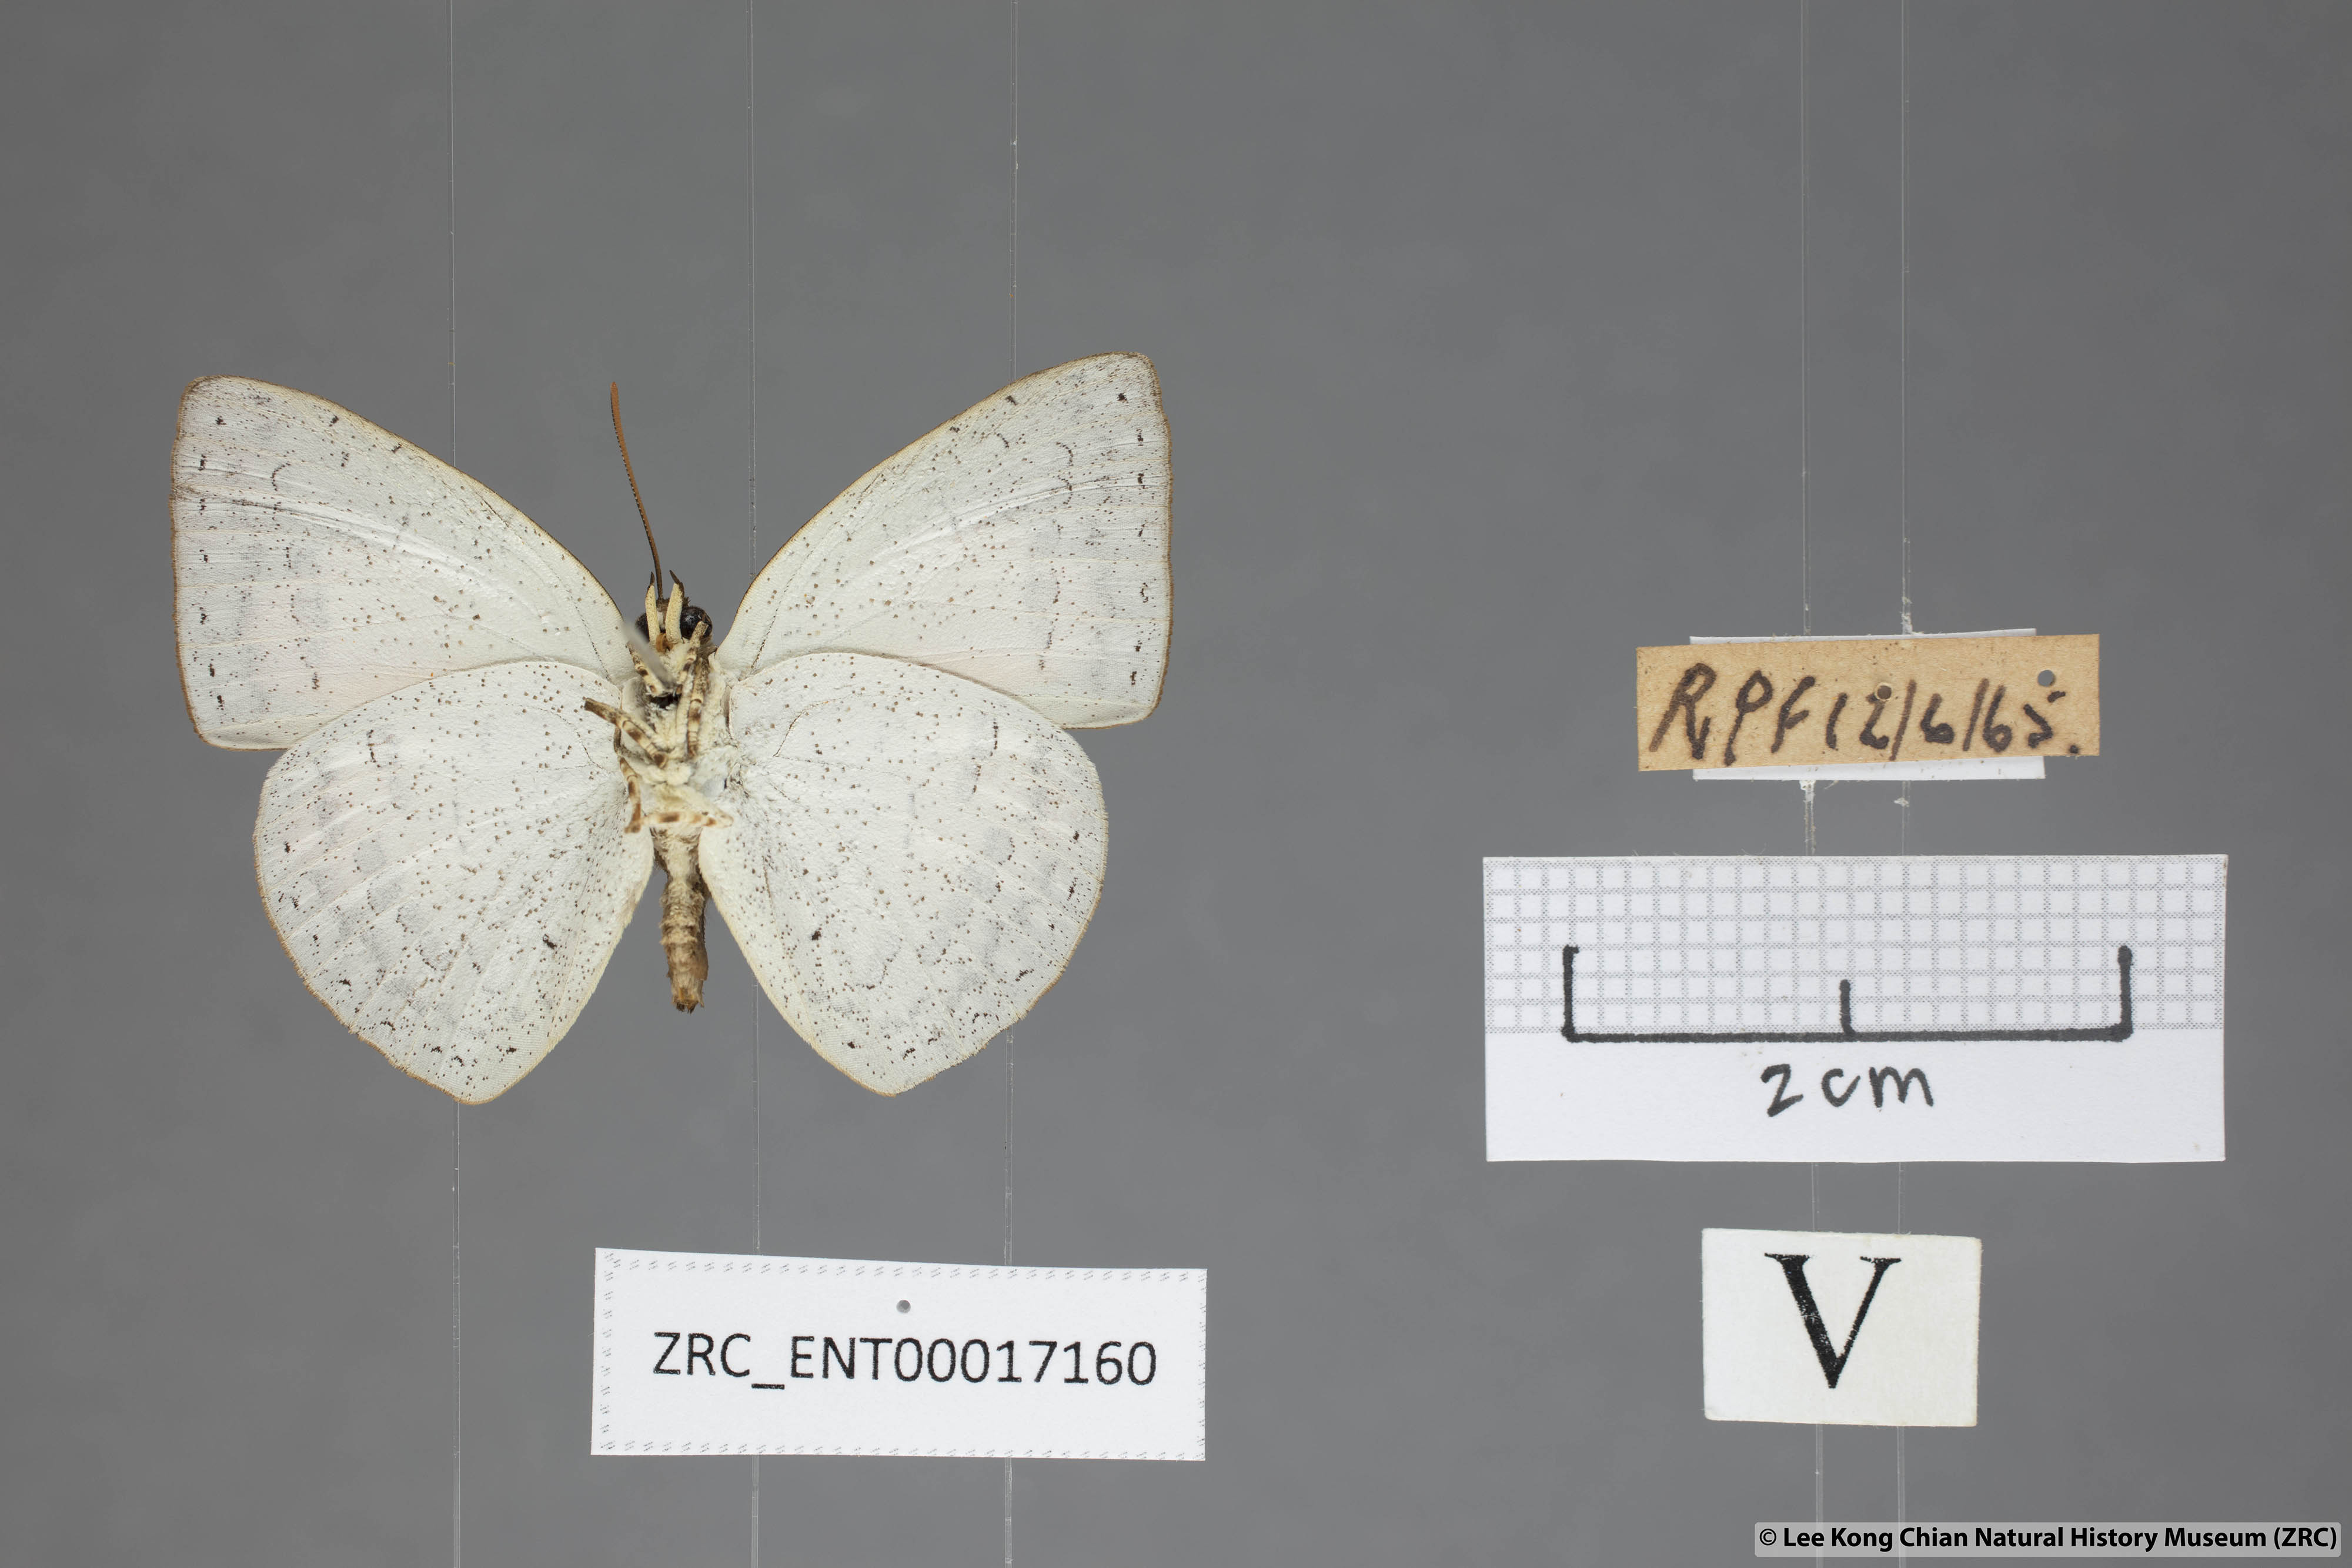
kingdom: Animalia
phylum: Arthropoda
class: Insecta
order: Lepidoptera
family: Lycaenidae
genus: Curetis
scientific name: Curetis sperthis
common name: Rounded sunbeam
